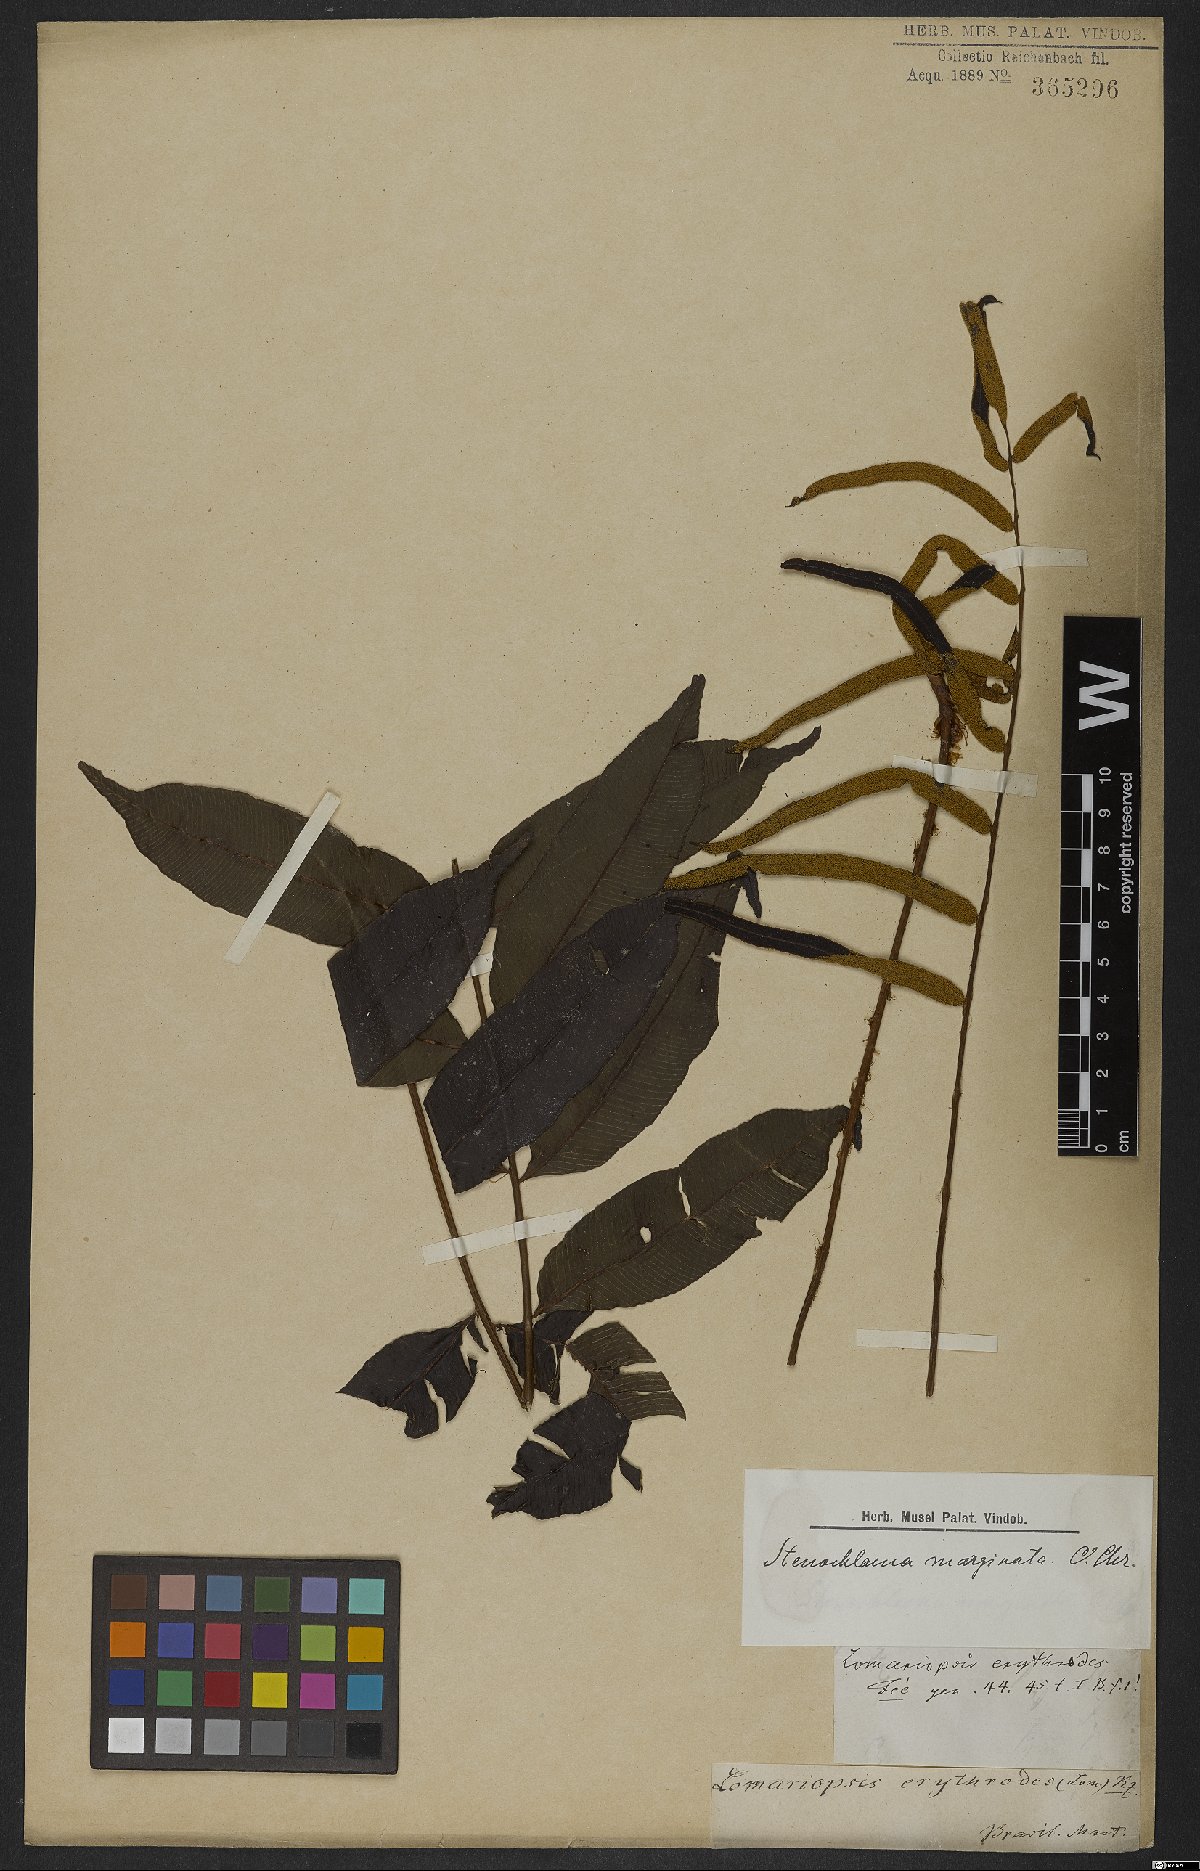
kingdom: Plantae
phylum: Tracheophyta
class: Polypodiopsida
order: Polypodiales
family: Lomariopsidaceae
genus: Lomariopsis
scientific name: Lomariopsis marginata
